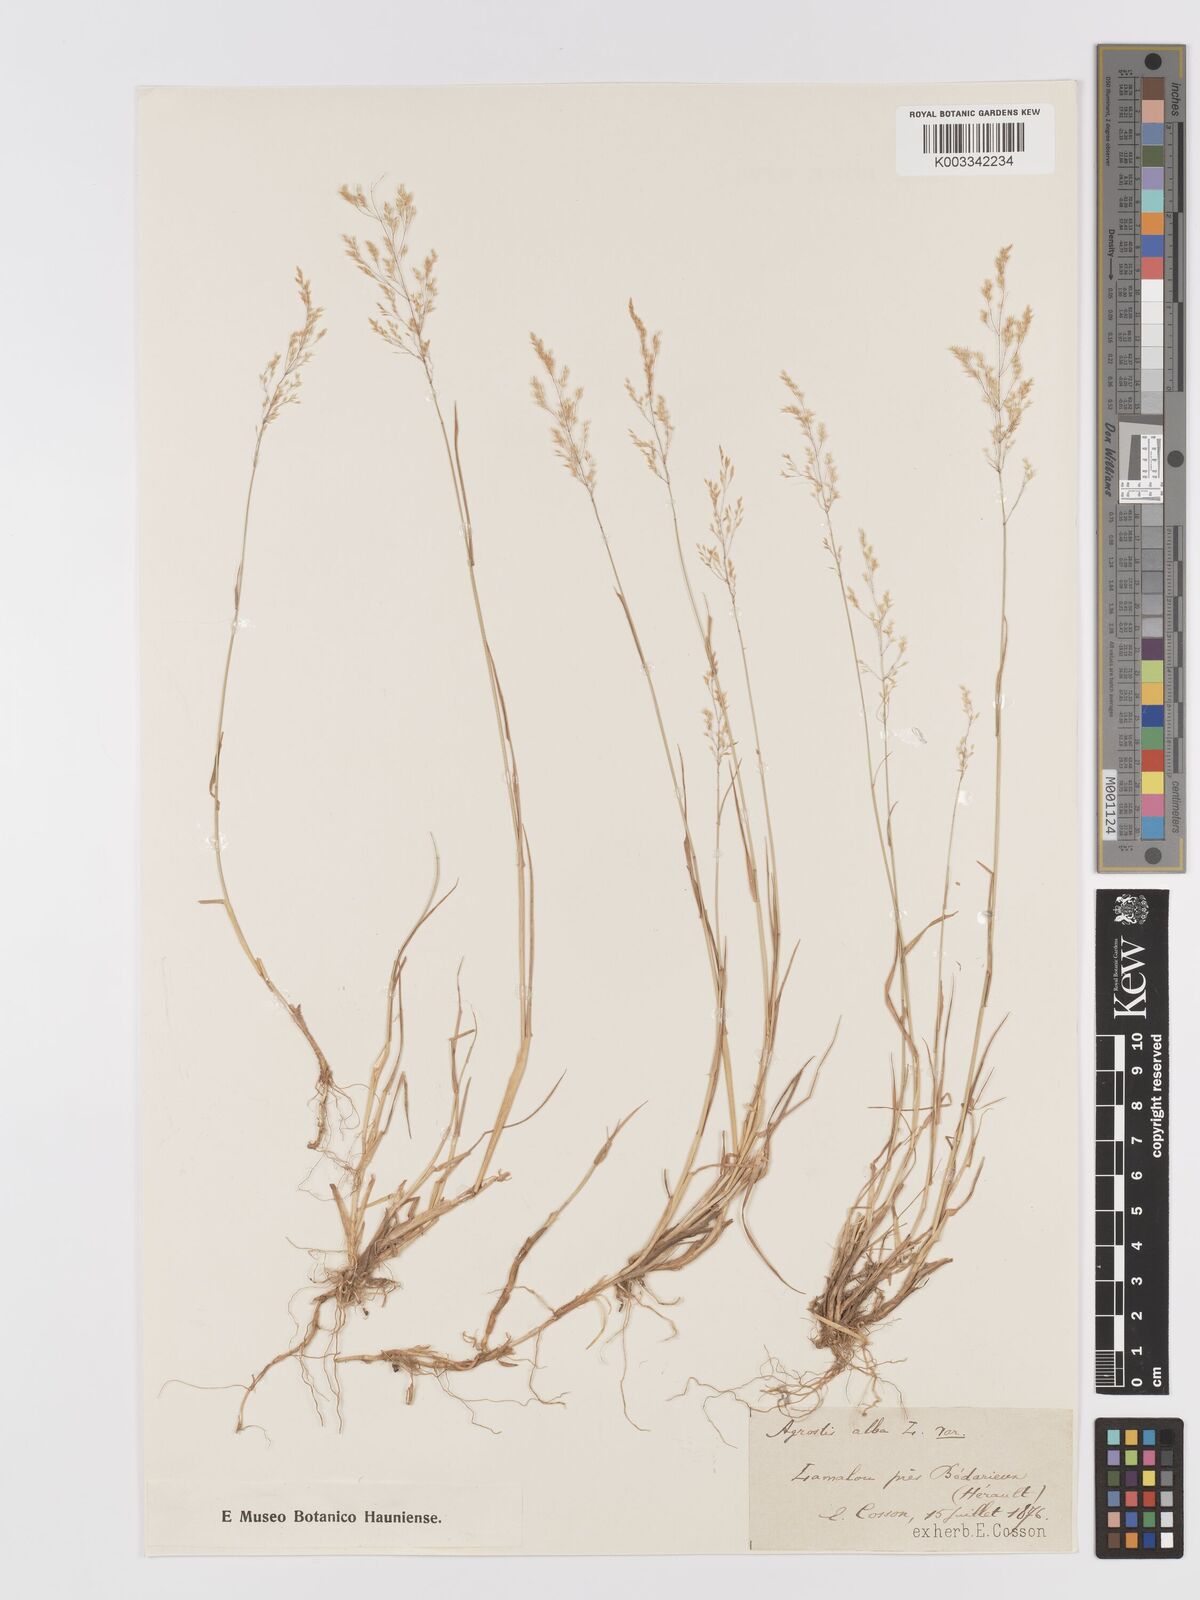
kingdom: Plantae
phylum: Tracheophyta
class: Liliopsida
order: Poales
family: Poaceae
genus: Agrostis
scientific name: Agrostis stolonifera
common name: Creeping bentgrass
